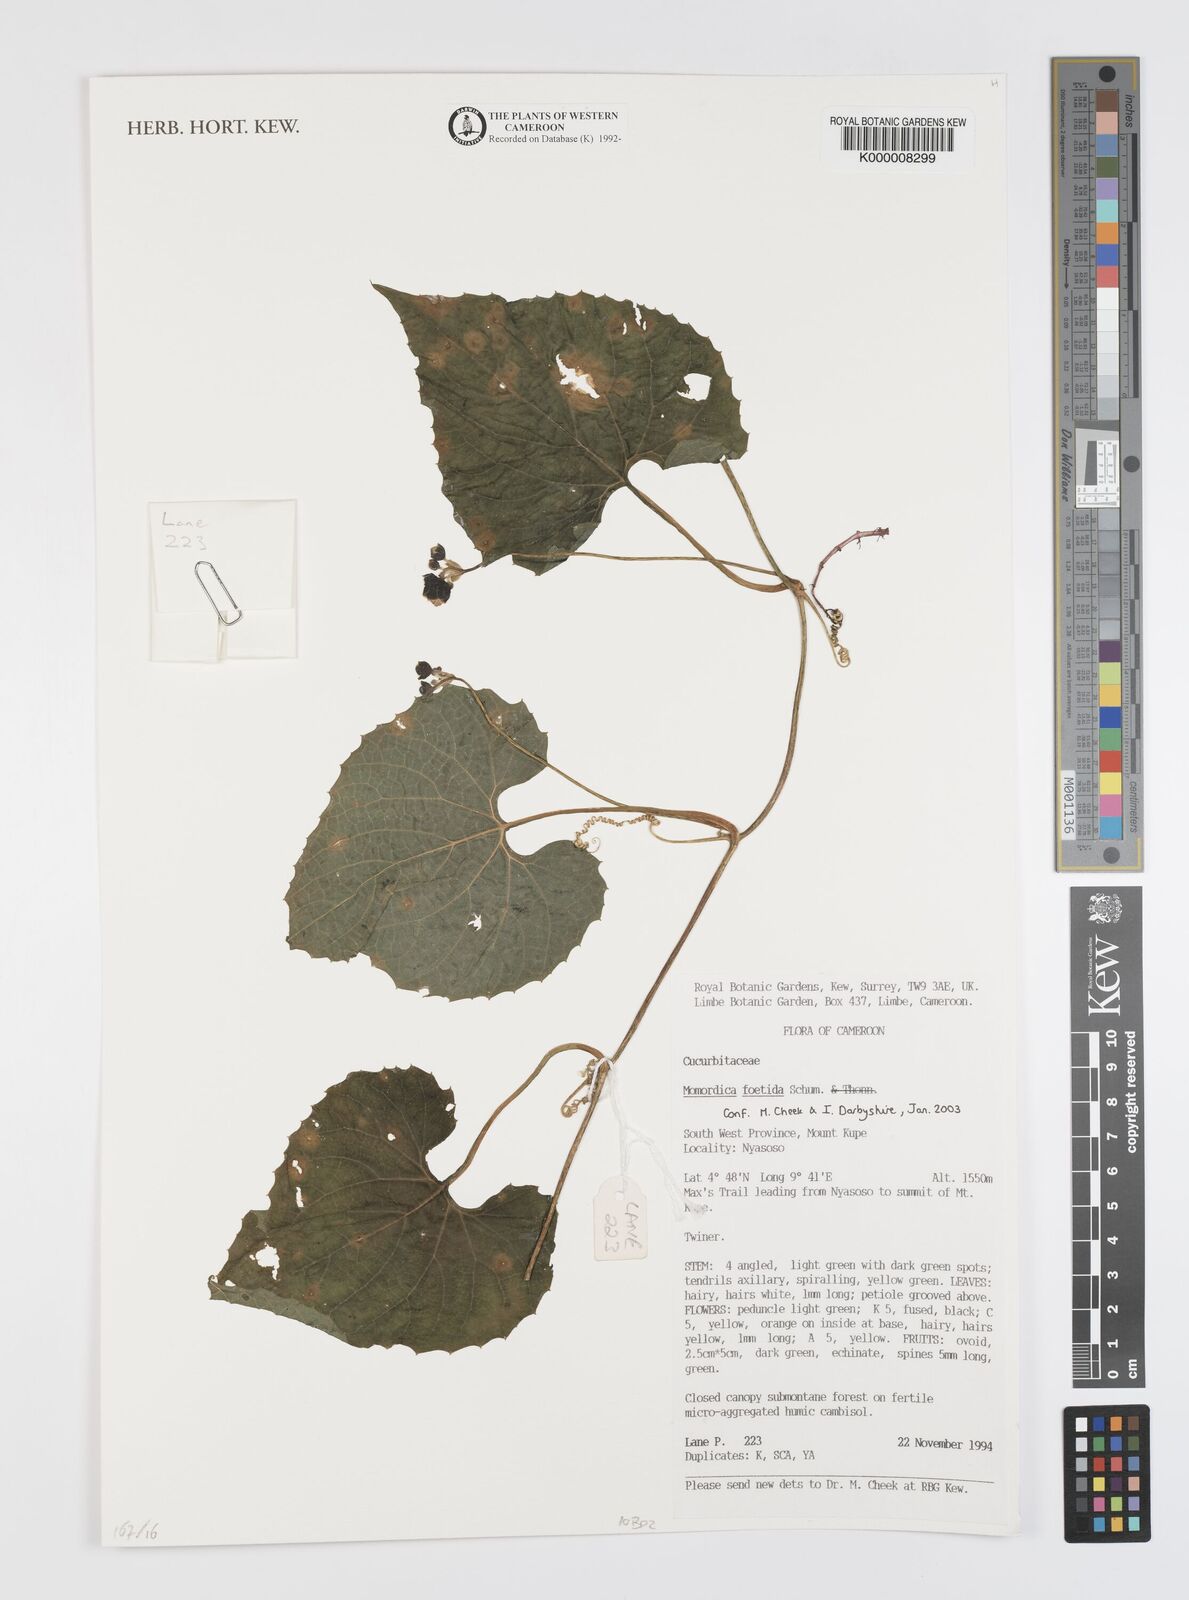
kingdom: Plantae
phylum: Tracheophyta
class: Magnoliopsida
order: Cucurbitales
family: Cucurbitaceae
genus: Momordica
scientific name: Momordica foetida
